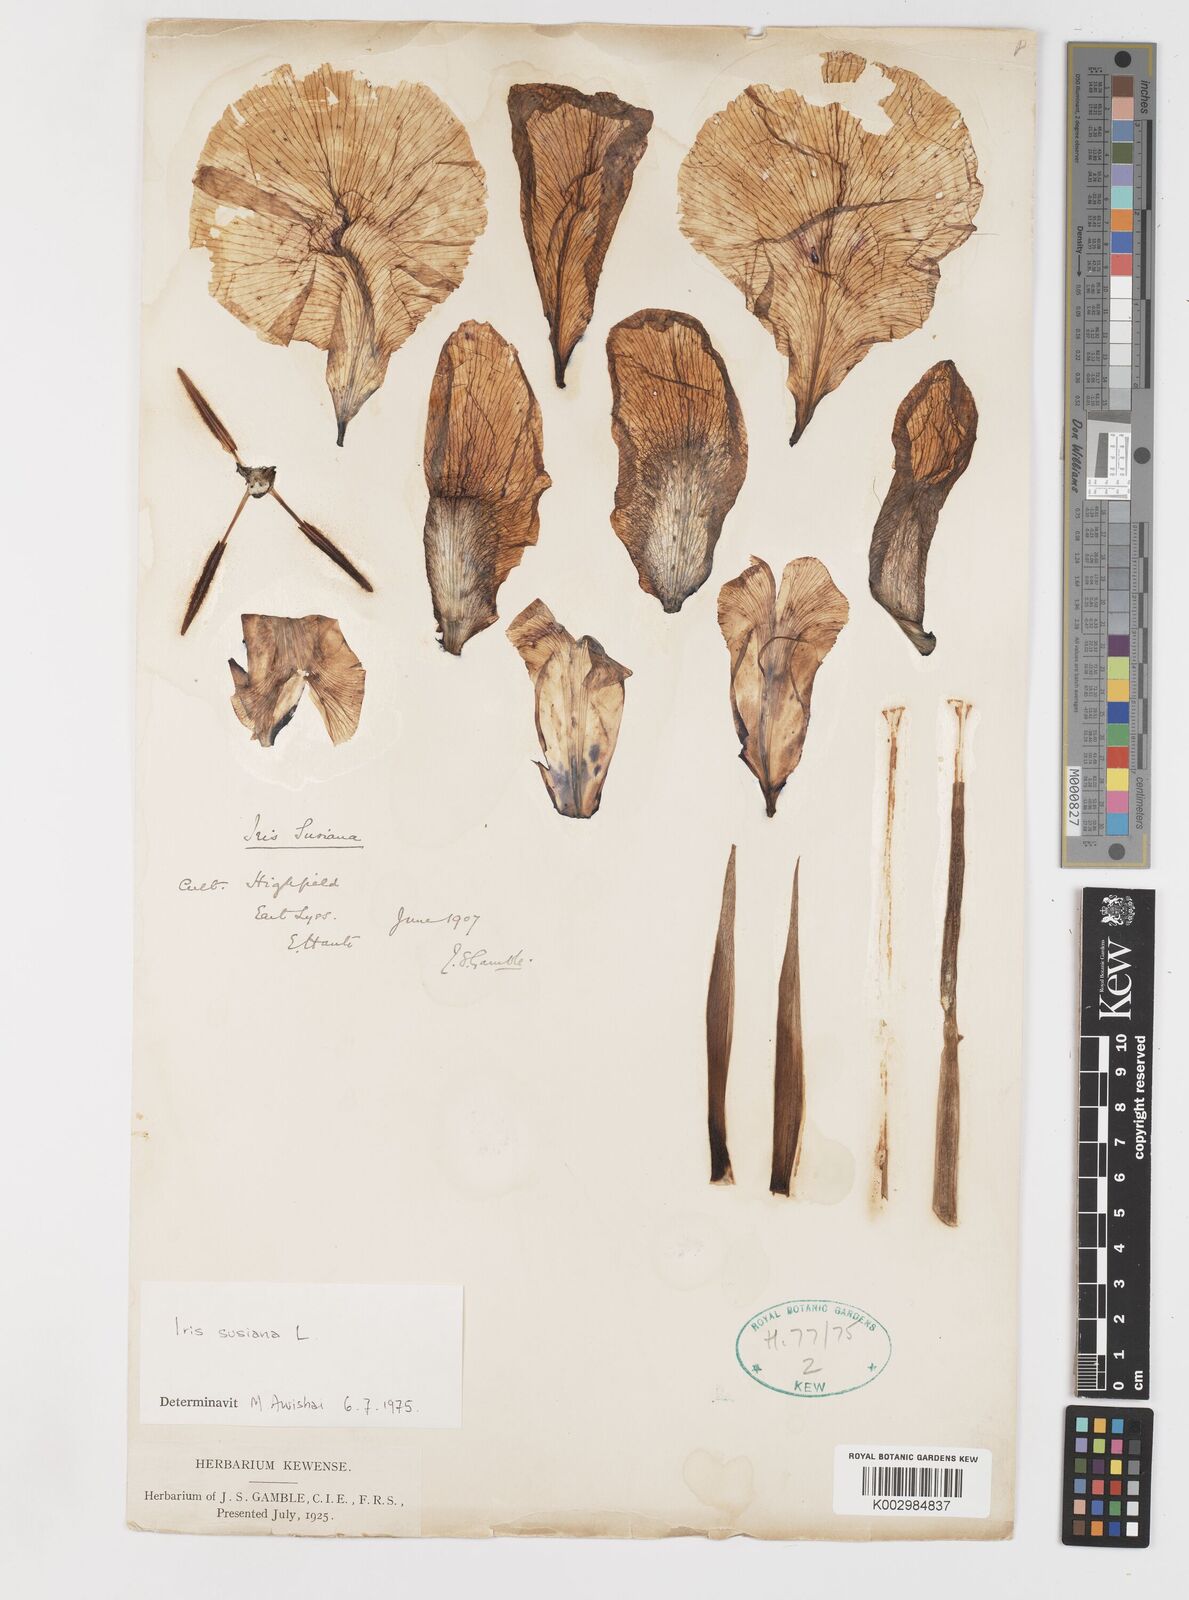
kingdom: Plantae
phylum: Tracheophyta
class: Liliopsida
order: Asparagales
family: Iridaceae
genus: Iris
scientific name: Iris susiana
